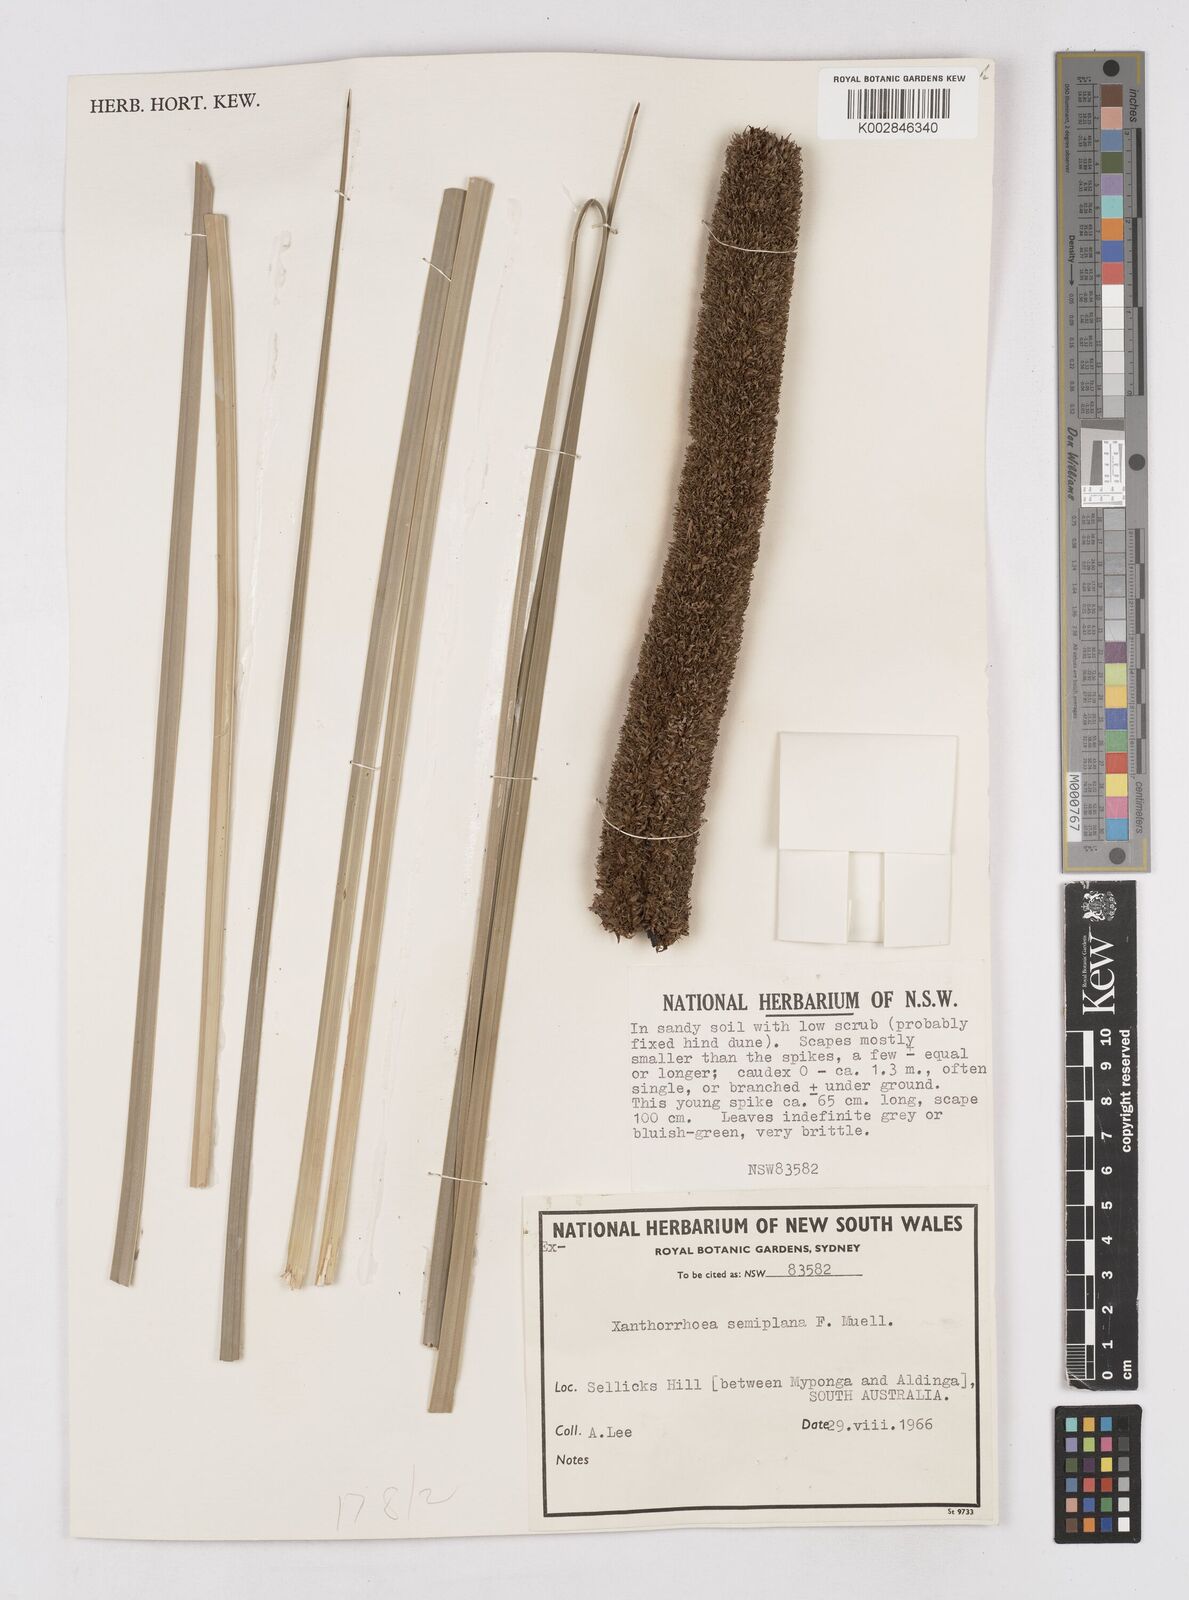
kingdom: Plantae
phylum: Tracheophyta
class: Liliopsida
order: Asparagales
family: Asphodelaceae
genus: Xanthorrhoea
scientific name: Xanthorrhoea semiplana
